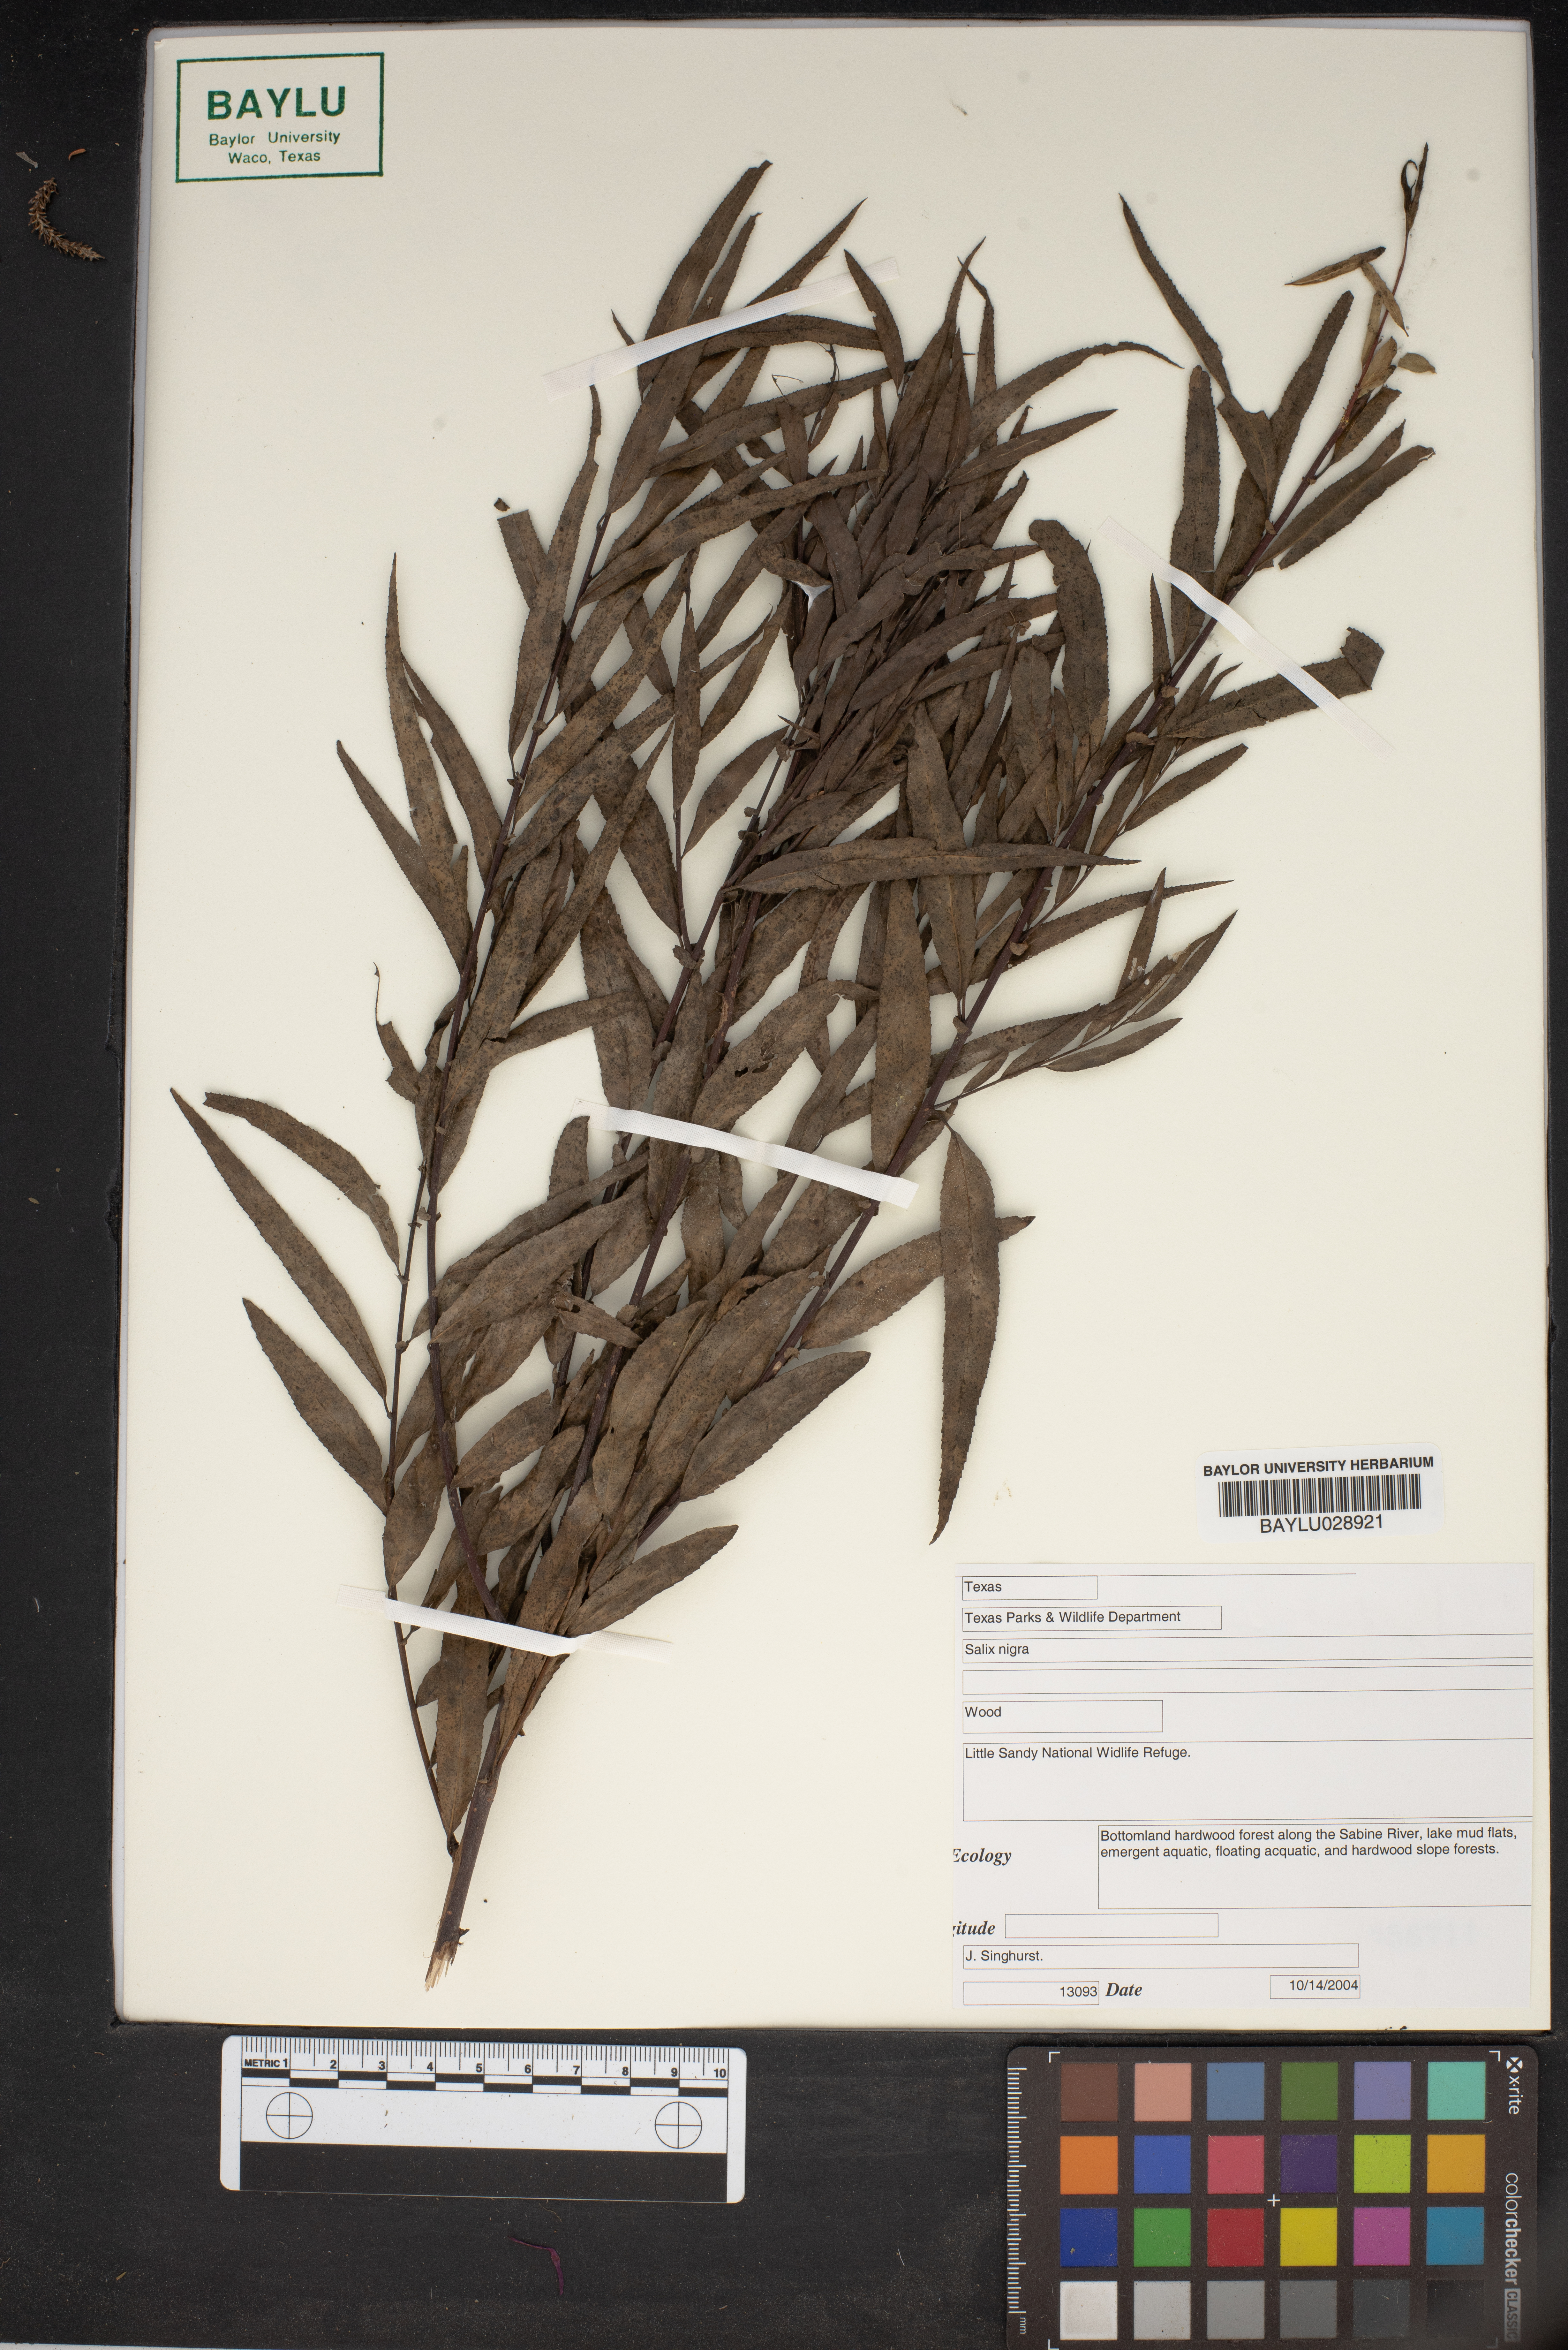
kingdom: Plantae
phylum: Tracheophyta
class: Magnoliopsida
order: Malpighiales
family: Salicaceae
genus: Salix
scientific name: Salix nigra
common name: Black willow
